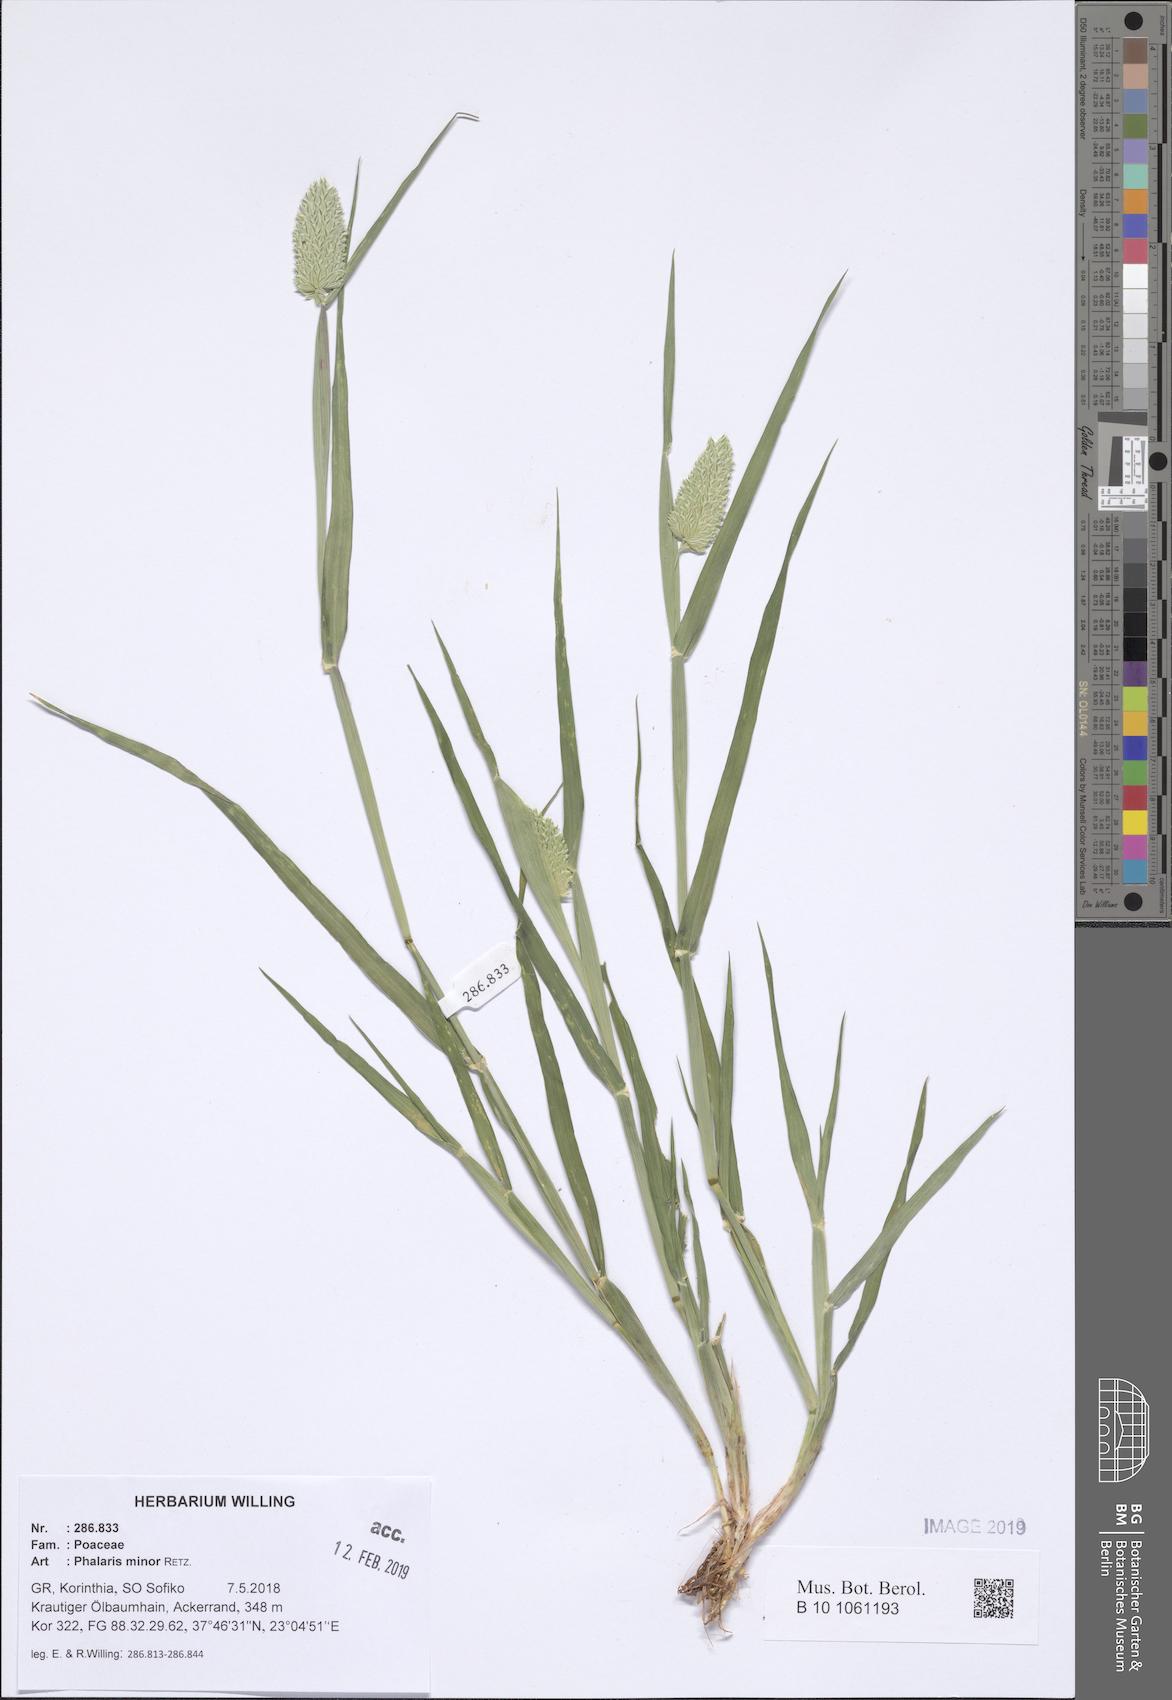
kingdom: Plantae
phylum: Tracheophyta
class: Liliopsida
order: Poales
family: Poaceae
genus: Phalaris
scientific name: Phalaris minor
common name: Littleseed canarygrass
